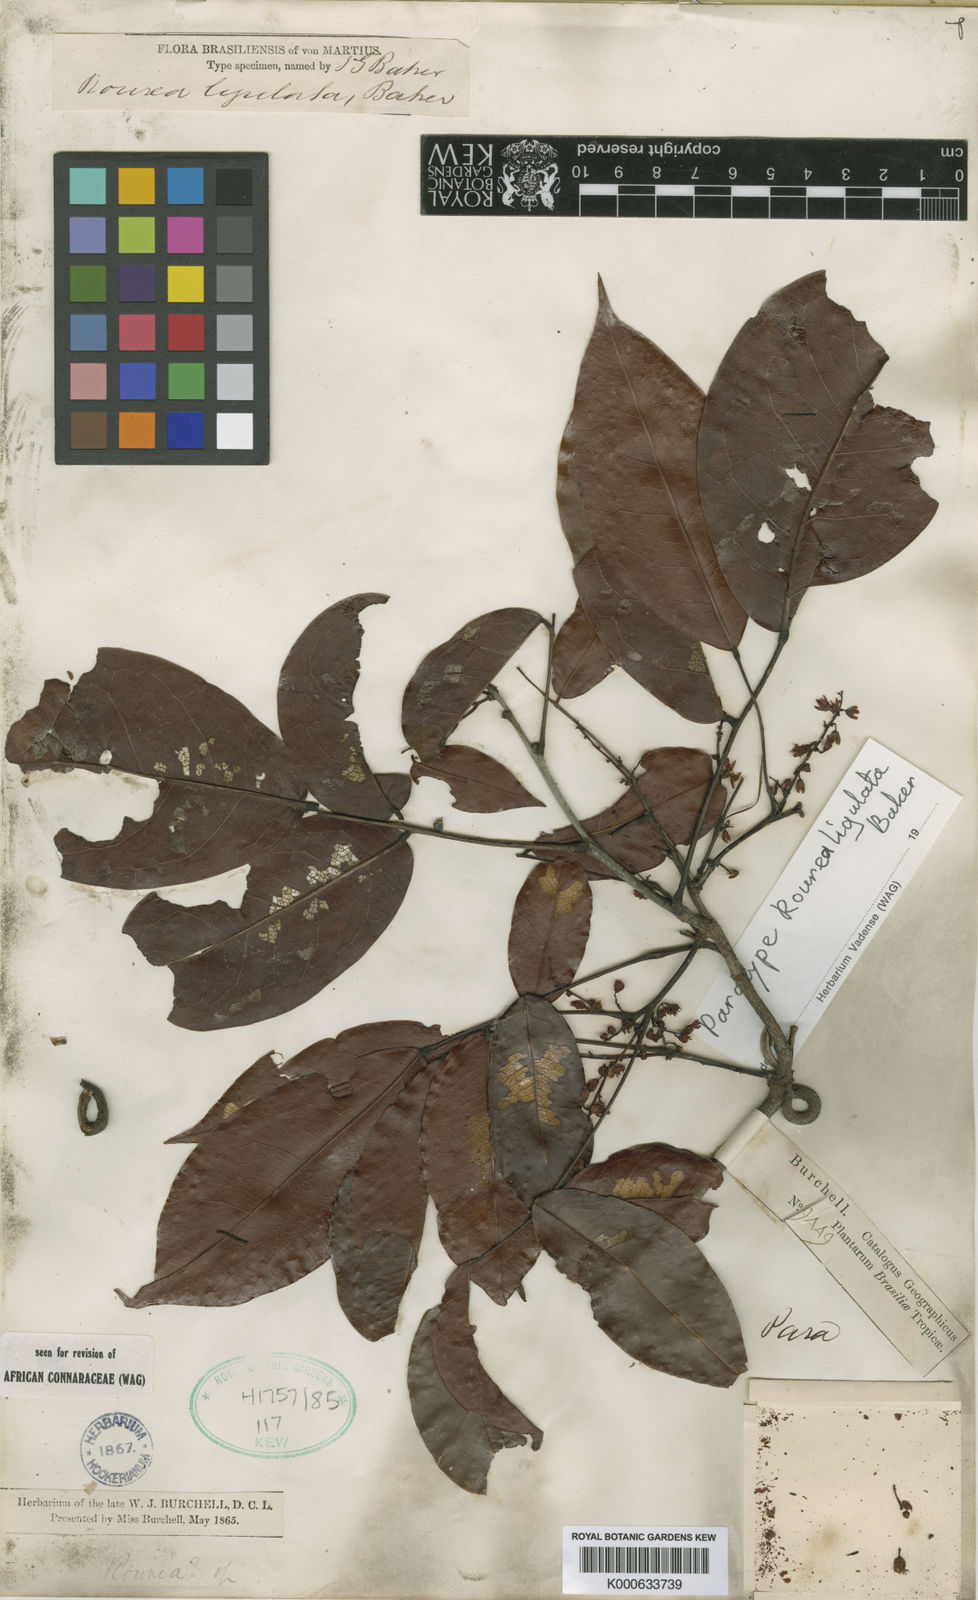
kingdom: Plantae
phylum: Tracheophyta
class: Magnoliopsida
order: Oxalidales
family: Connaraceae
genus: Rourea
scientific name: Rourea ligulata
